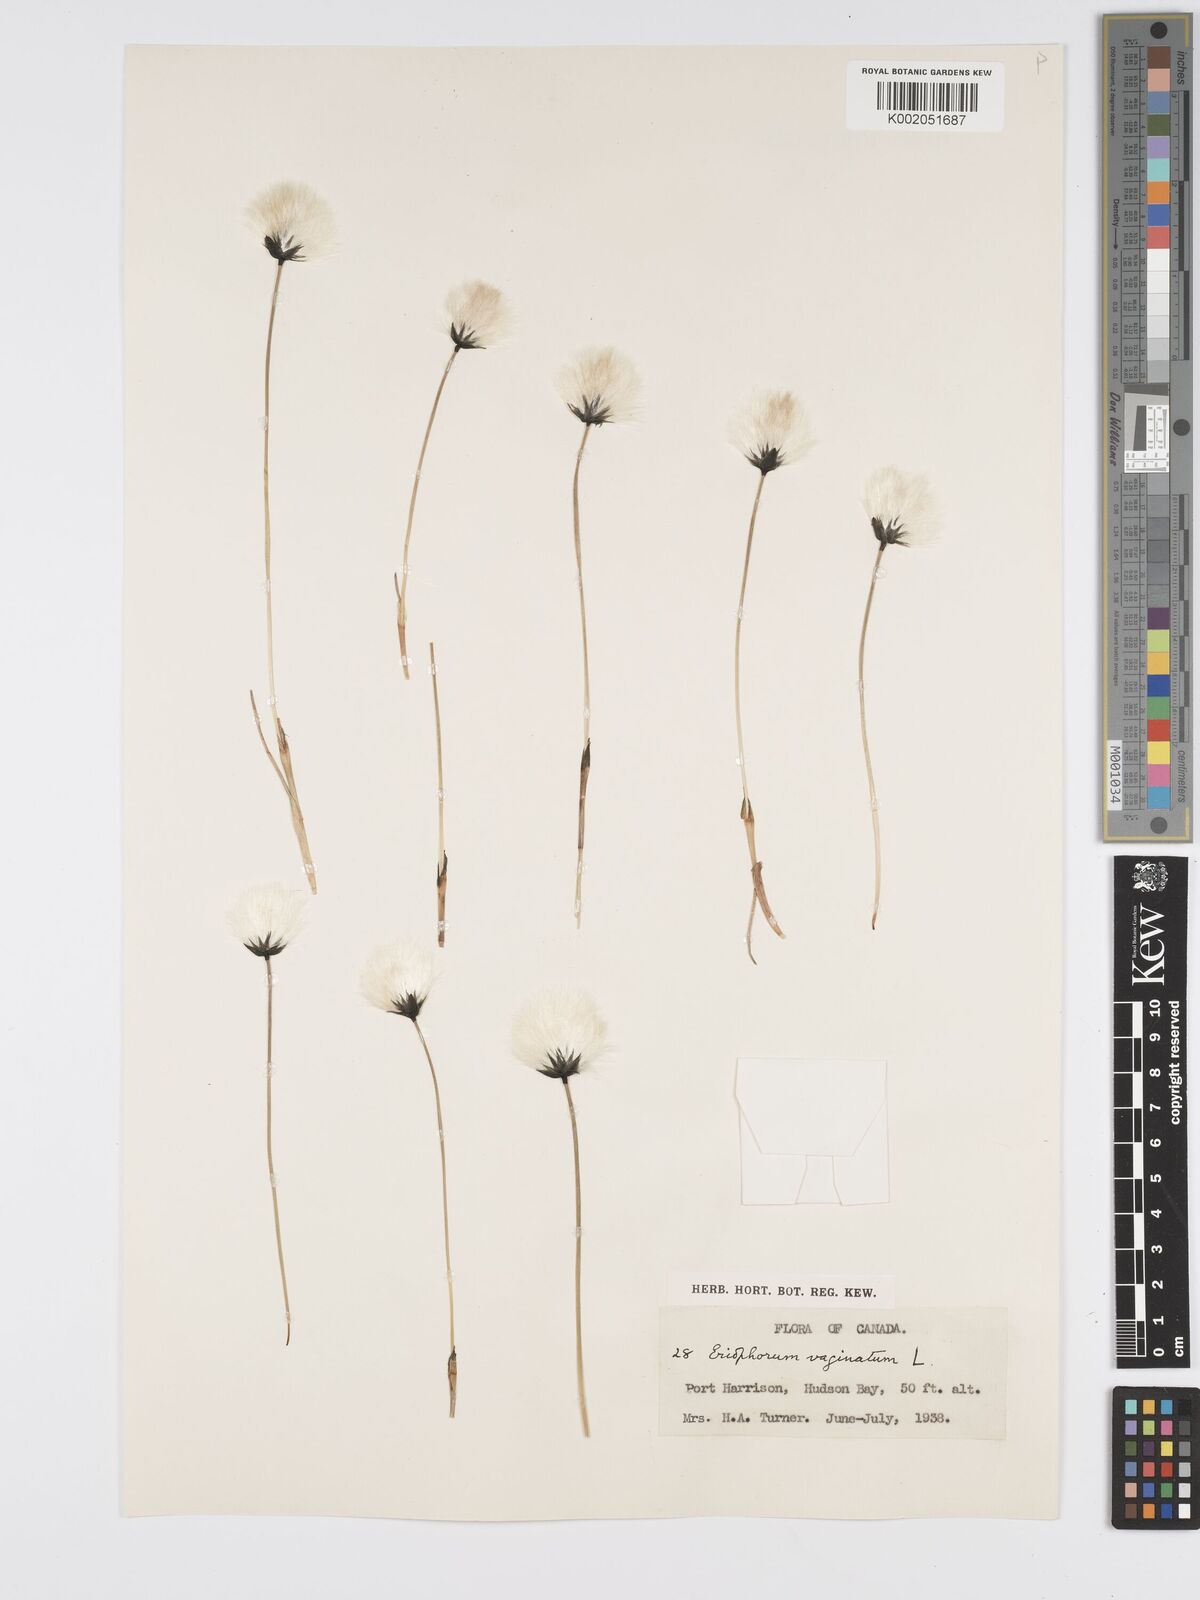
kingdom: Plantae
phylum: Tracheophyta
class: Liliopsida
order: Poales
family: Cyperaceae
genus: Eriophorum
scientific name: Eriophorum vaginatum
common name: Hare's-tail cottongrass
